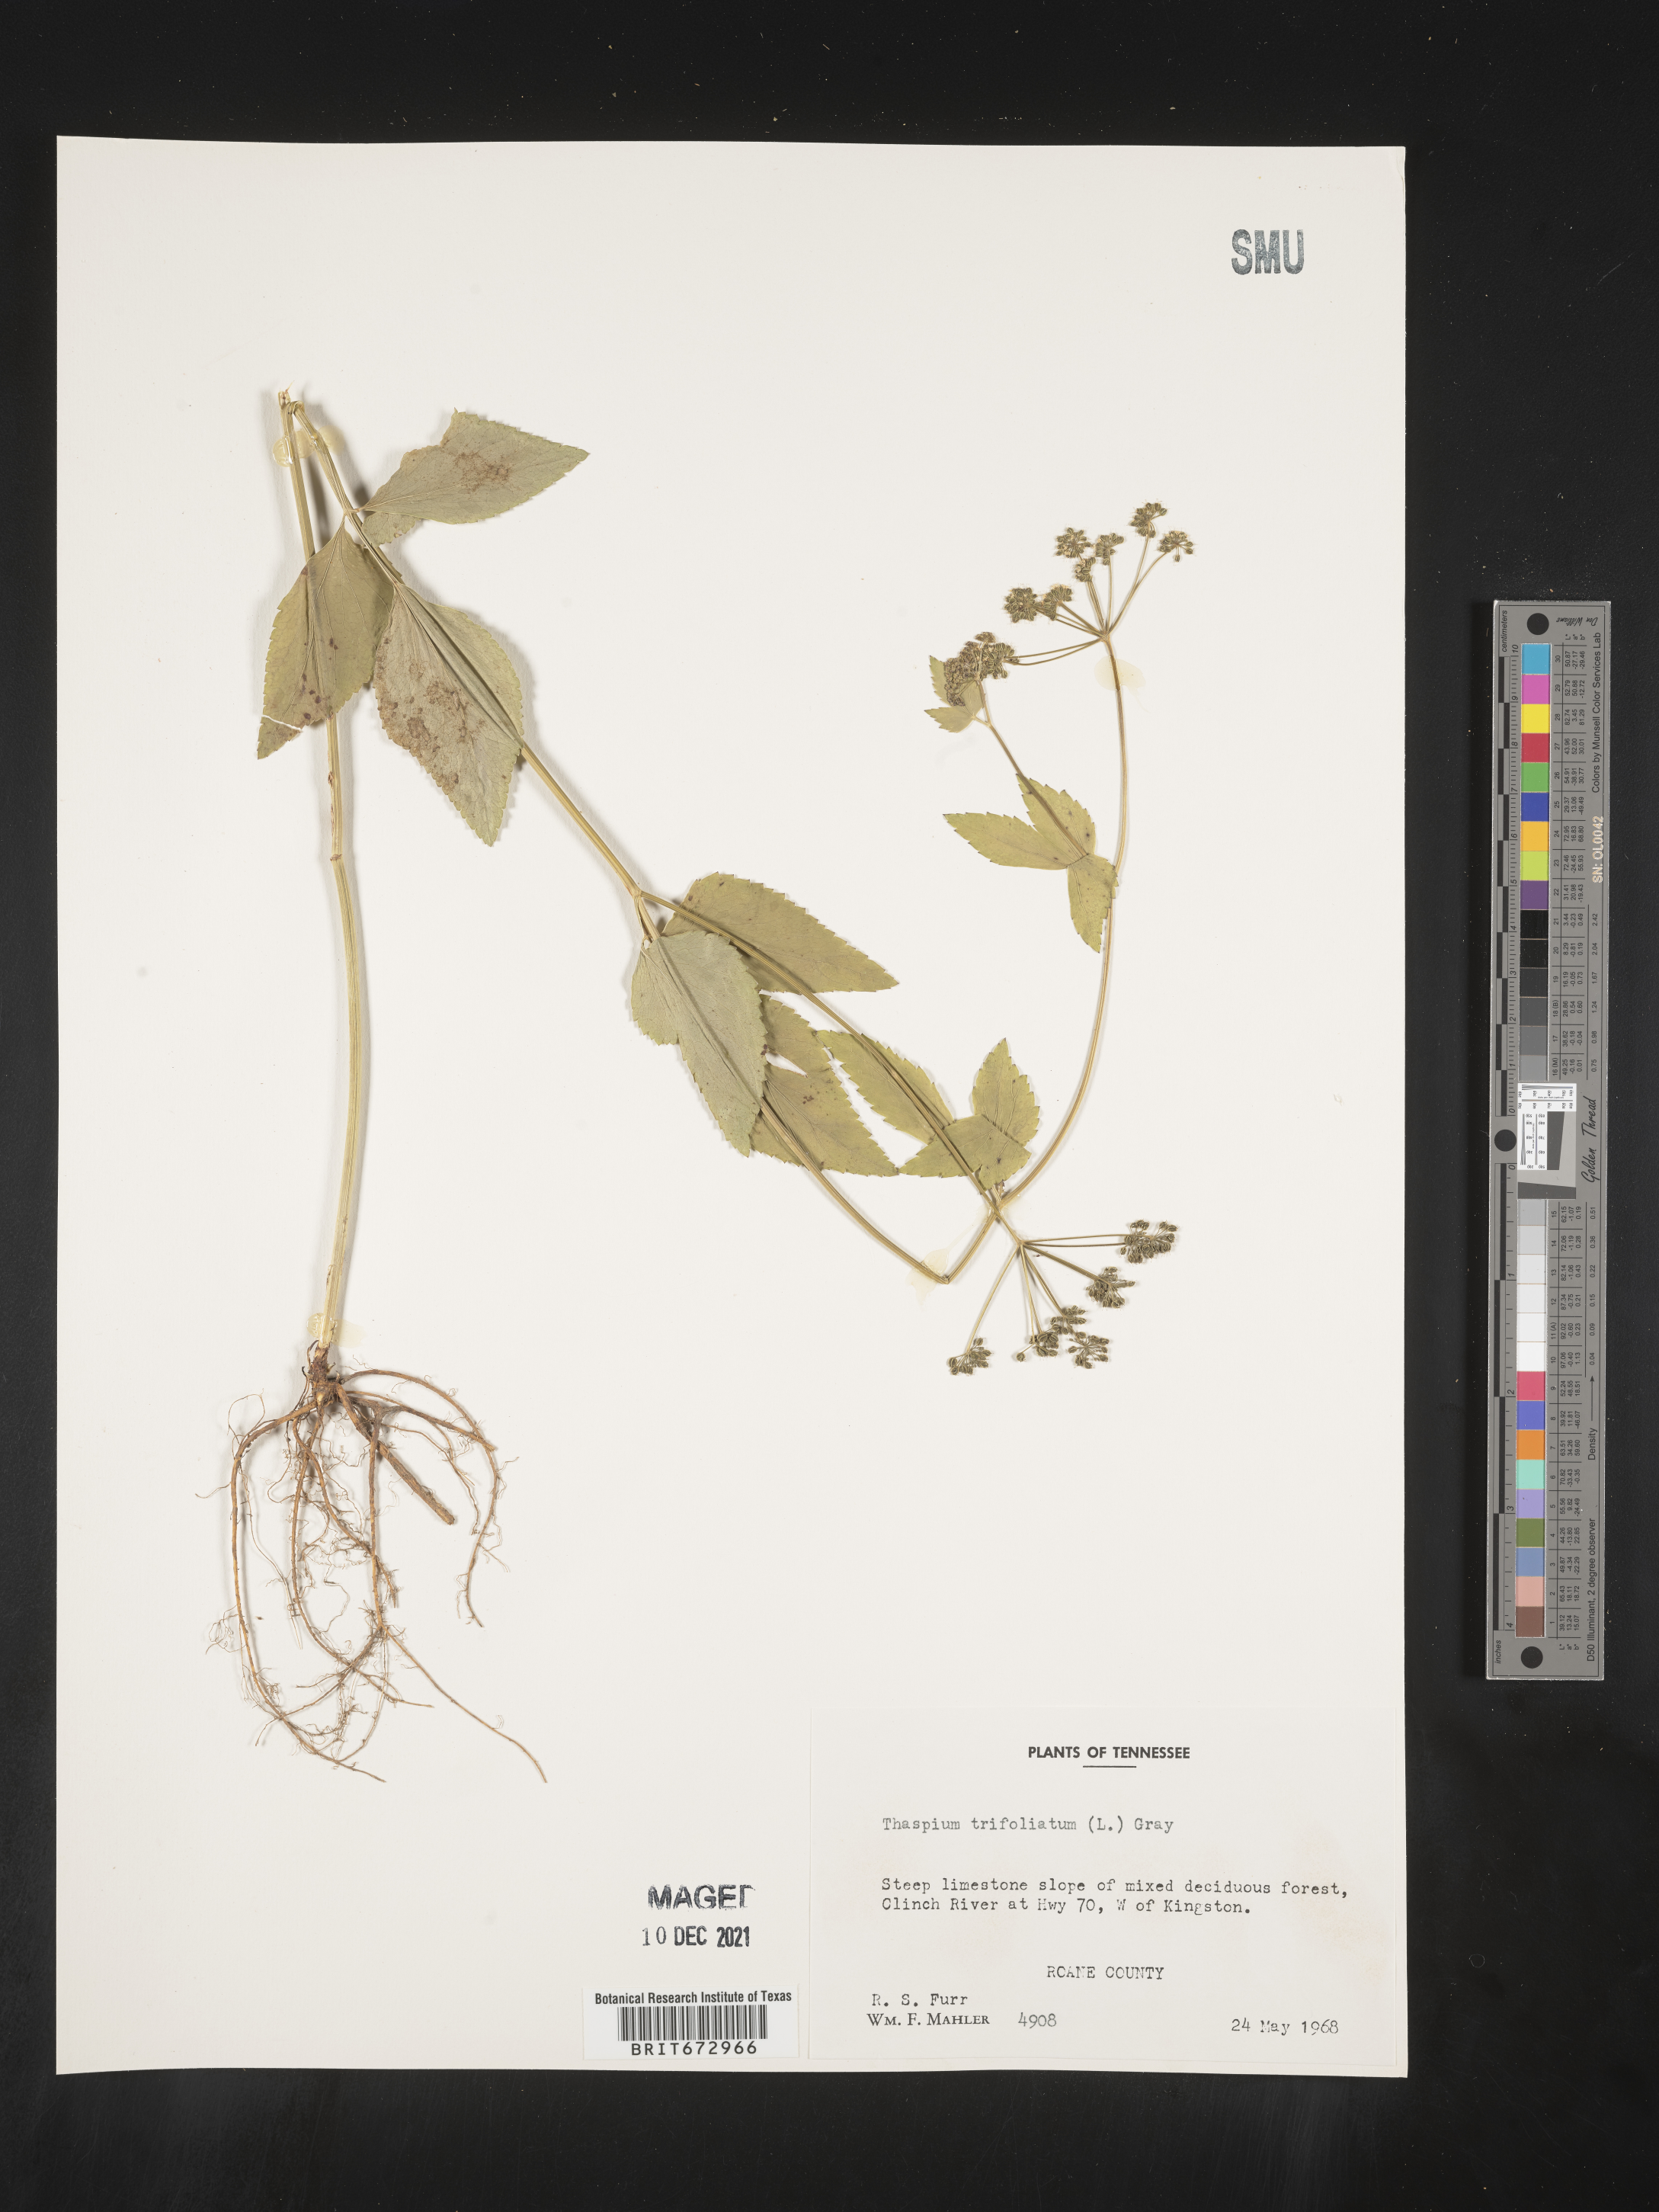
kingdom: Plantae
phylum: Tracheophyta
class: Magnoliopsida
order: Apiales
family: Apiaceae
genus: Thaspium
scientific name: Thaspium
